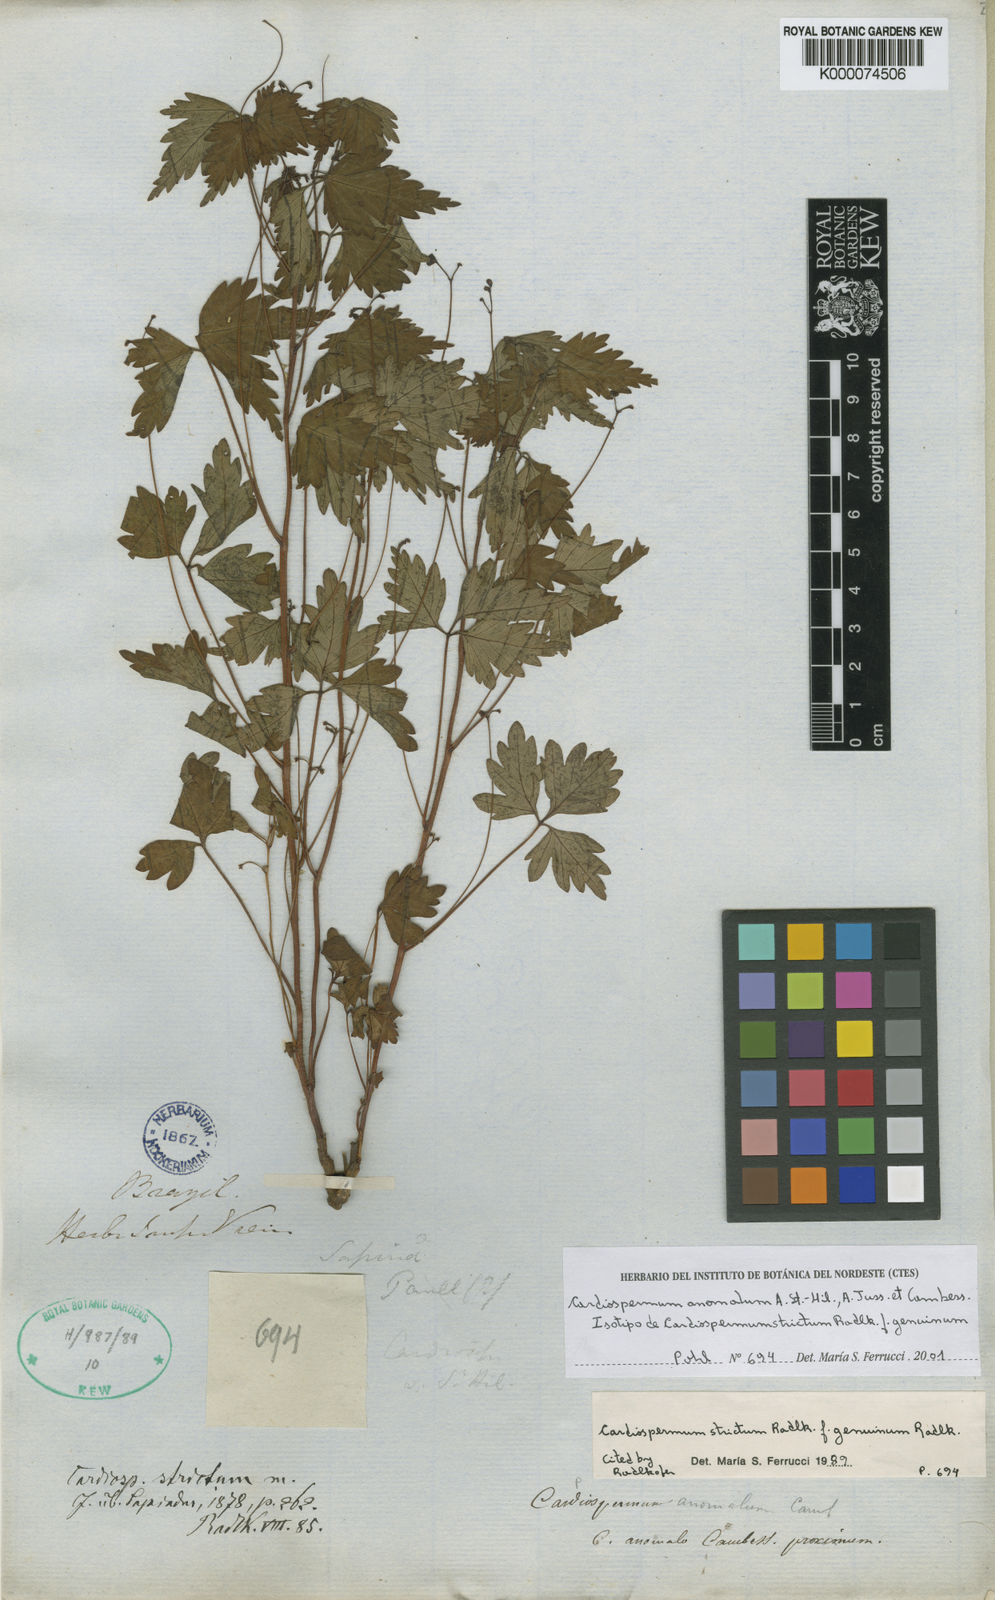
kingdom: Plantae
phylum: Tracheophyta
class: Magnoliopsida
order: Sapindales
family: Sapindaceae
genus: Cardiospermum
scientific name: Cardiospermum
